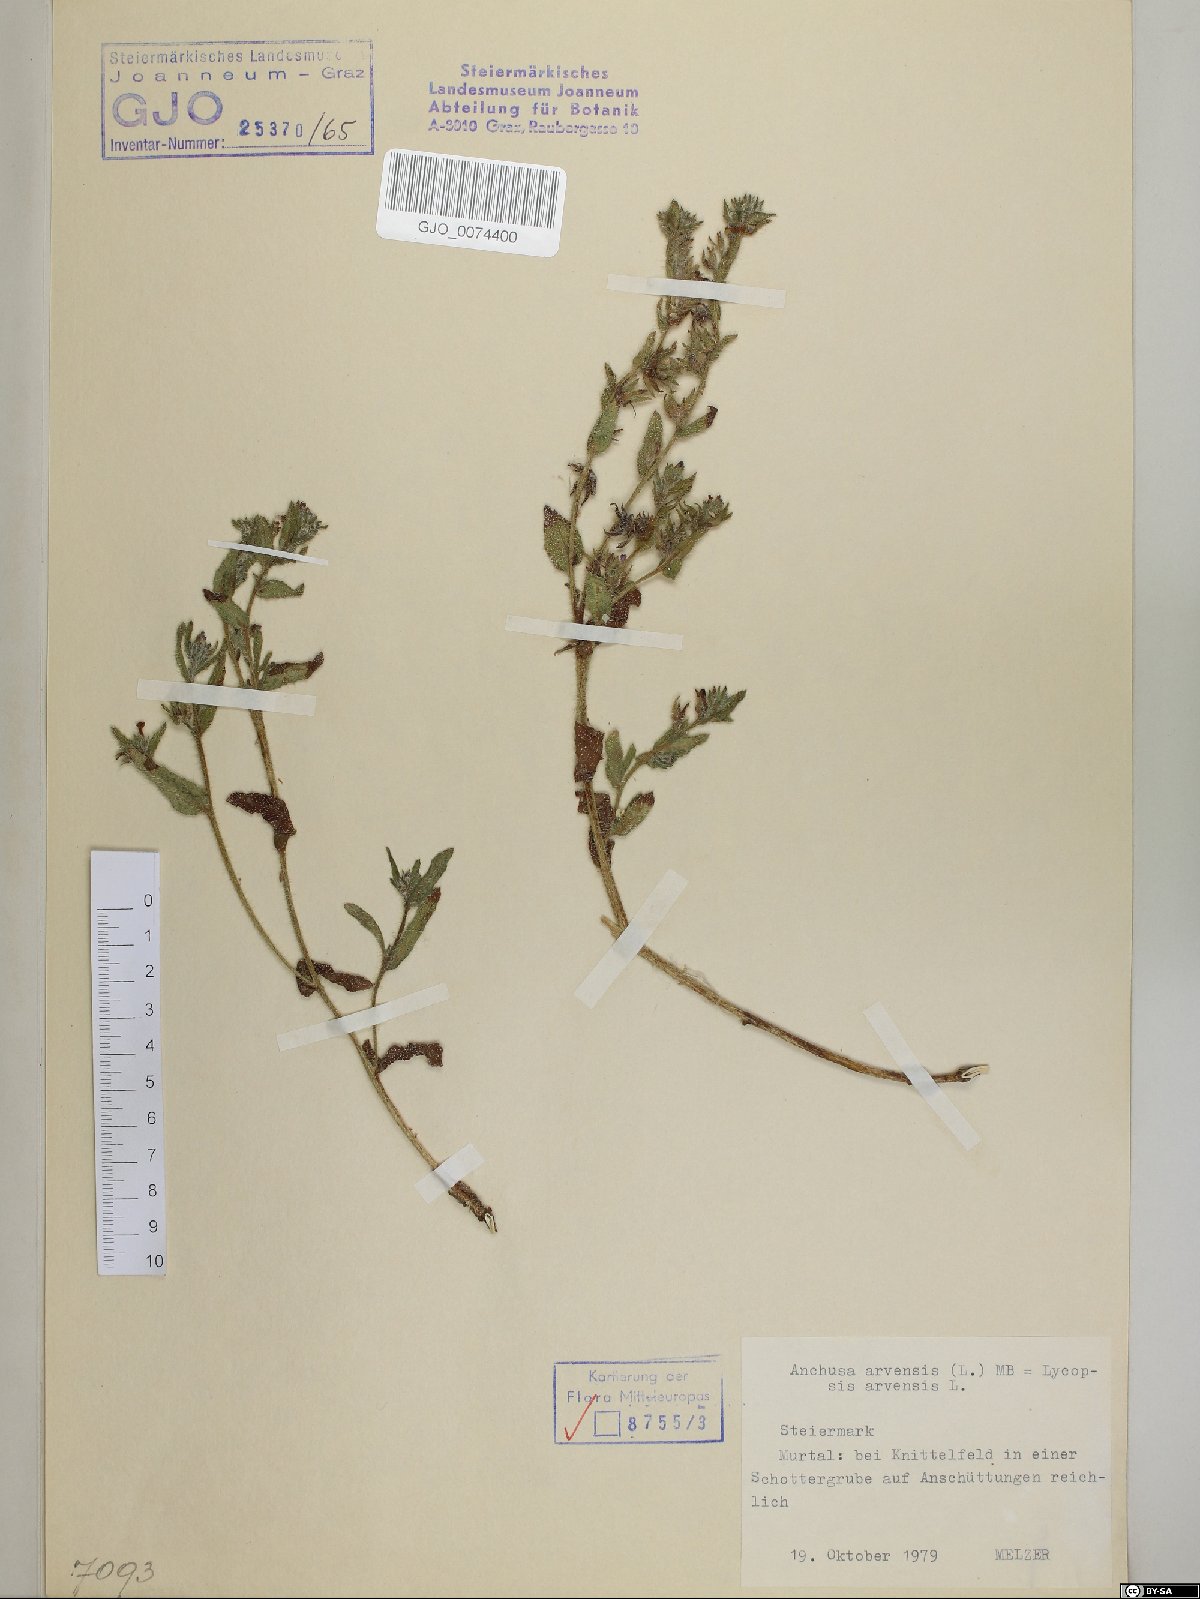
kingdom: Plantae
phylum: Tracheophyta
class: Magnoliopsida
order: Boraginales
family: Boraginaceae
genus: Lycopsis
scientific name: Lycopsis arvensis
